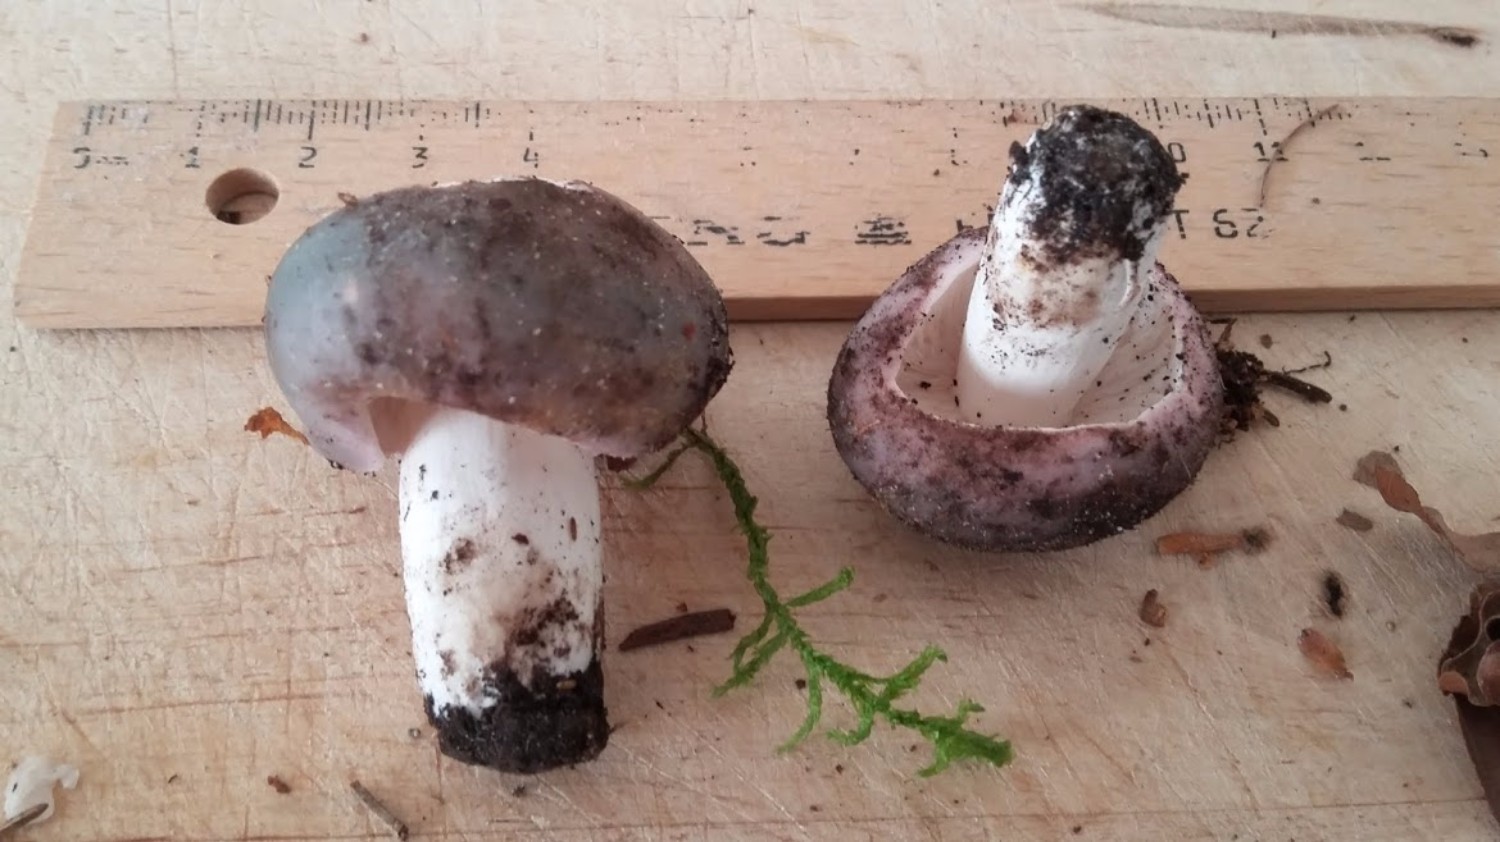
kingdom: Fungi
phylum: Basidiomycota
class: Agaricomycetes
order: Russulales
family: Russulaceae
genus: Russula
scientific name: Russula cyanoxantha
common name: broget skørhat
